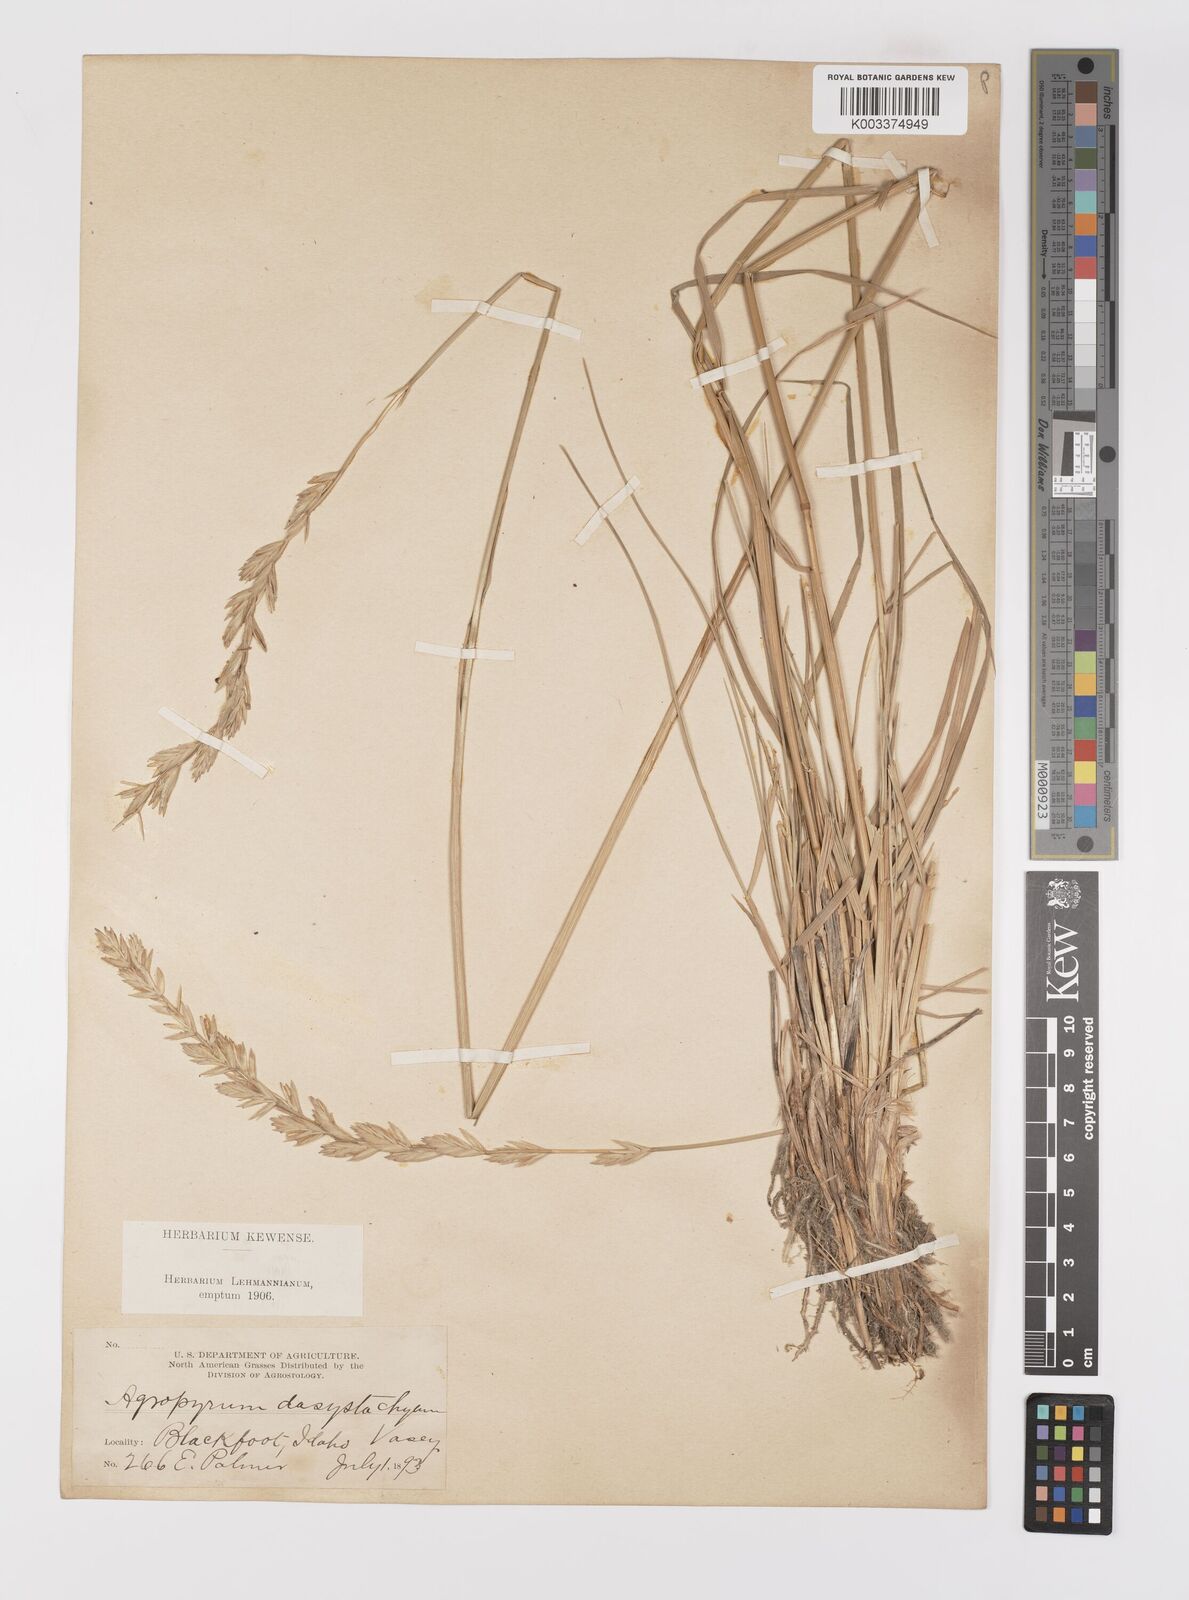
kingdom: Plantae
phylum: Tracheophyta
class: Liliopsida
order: Poales
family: Poaceae
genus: Elymus
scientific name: Elymus lanceolatus
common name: Thick-spike wheatgrass
